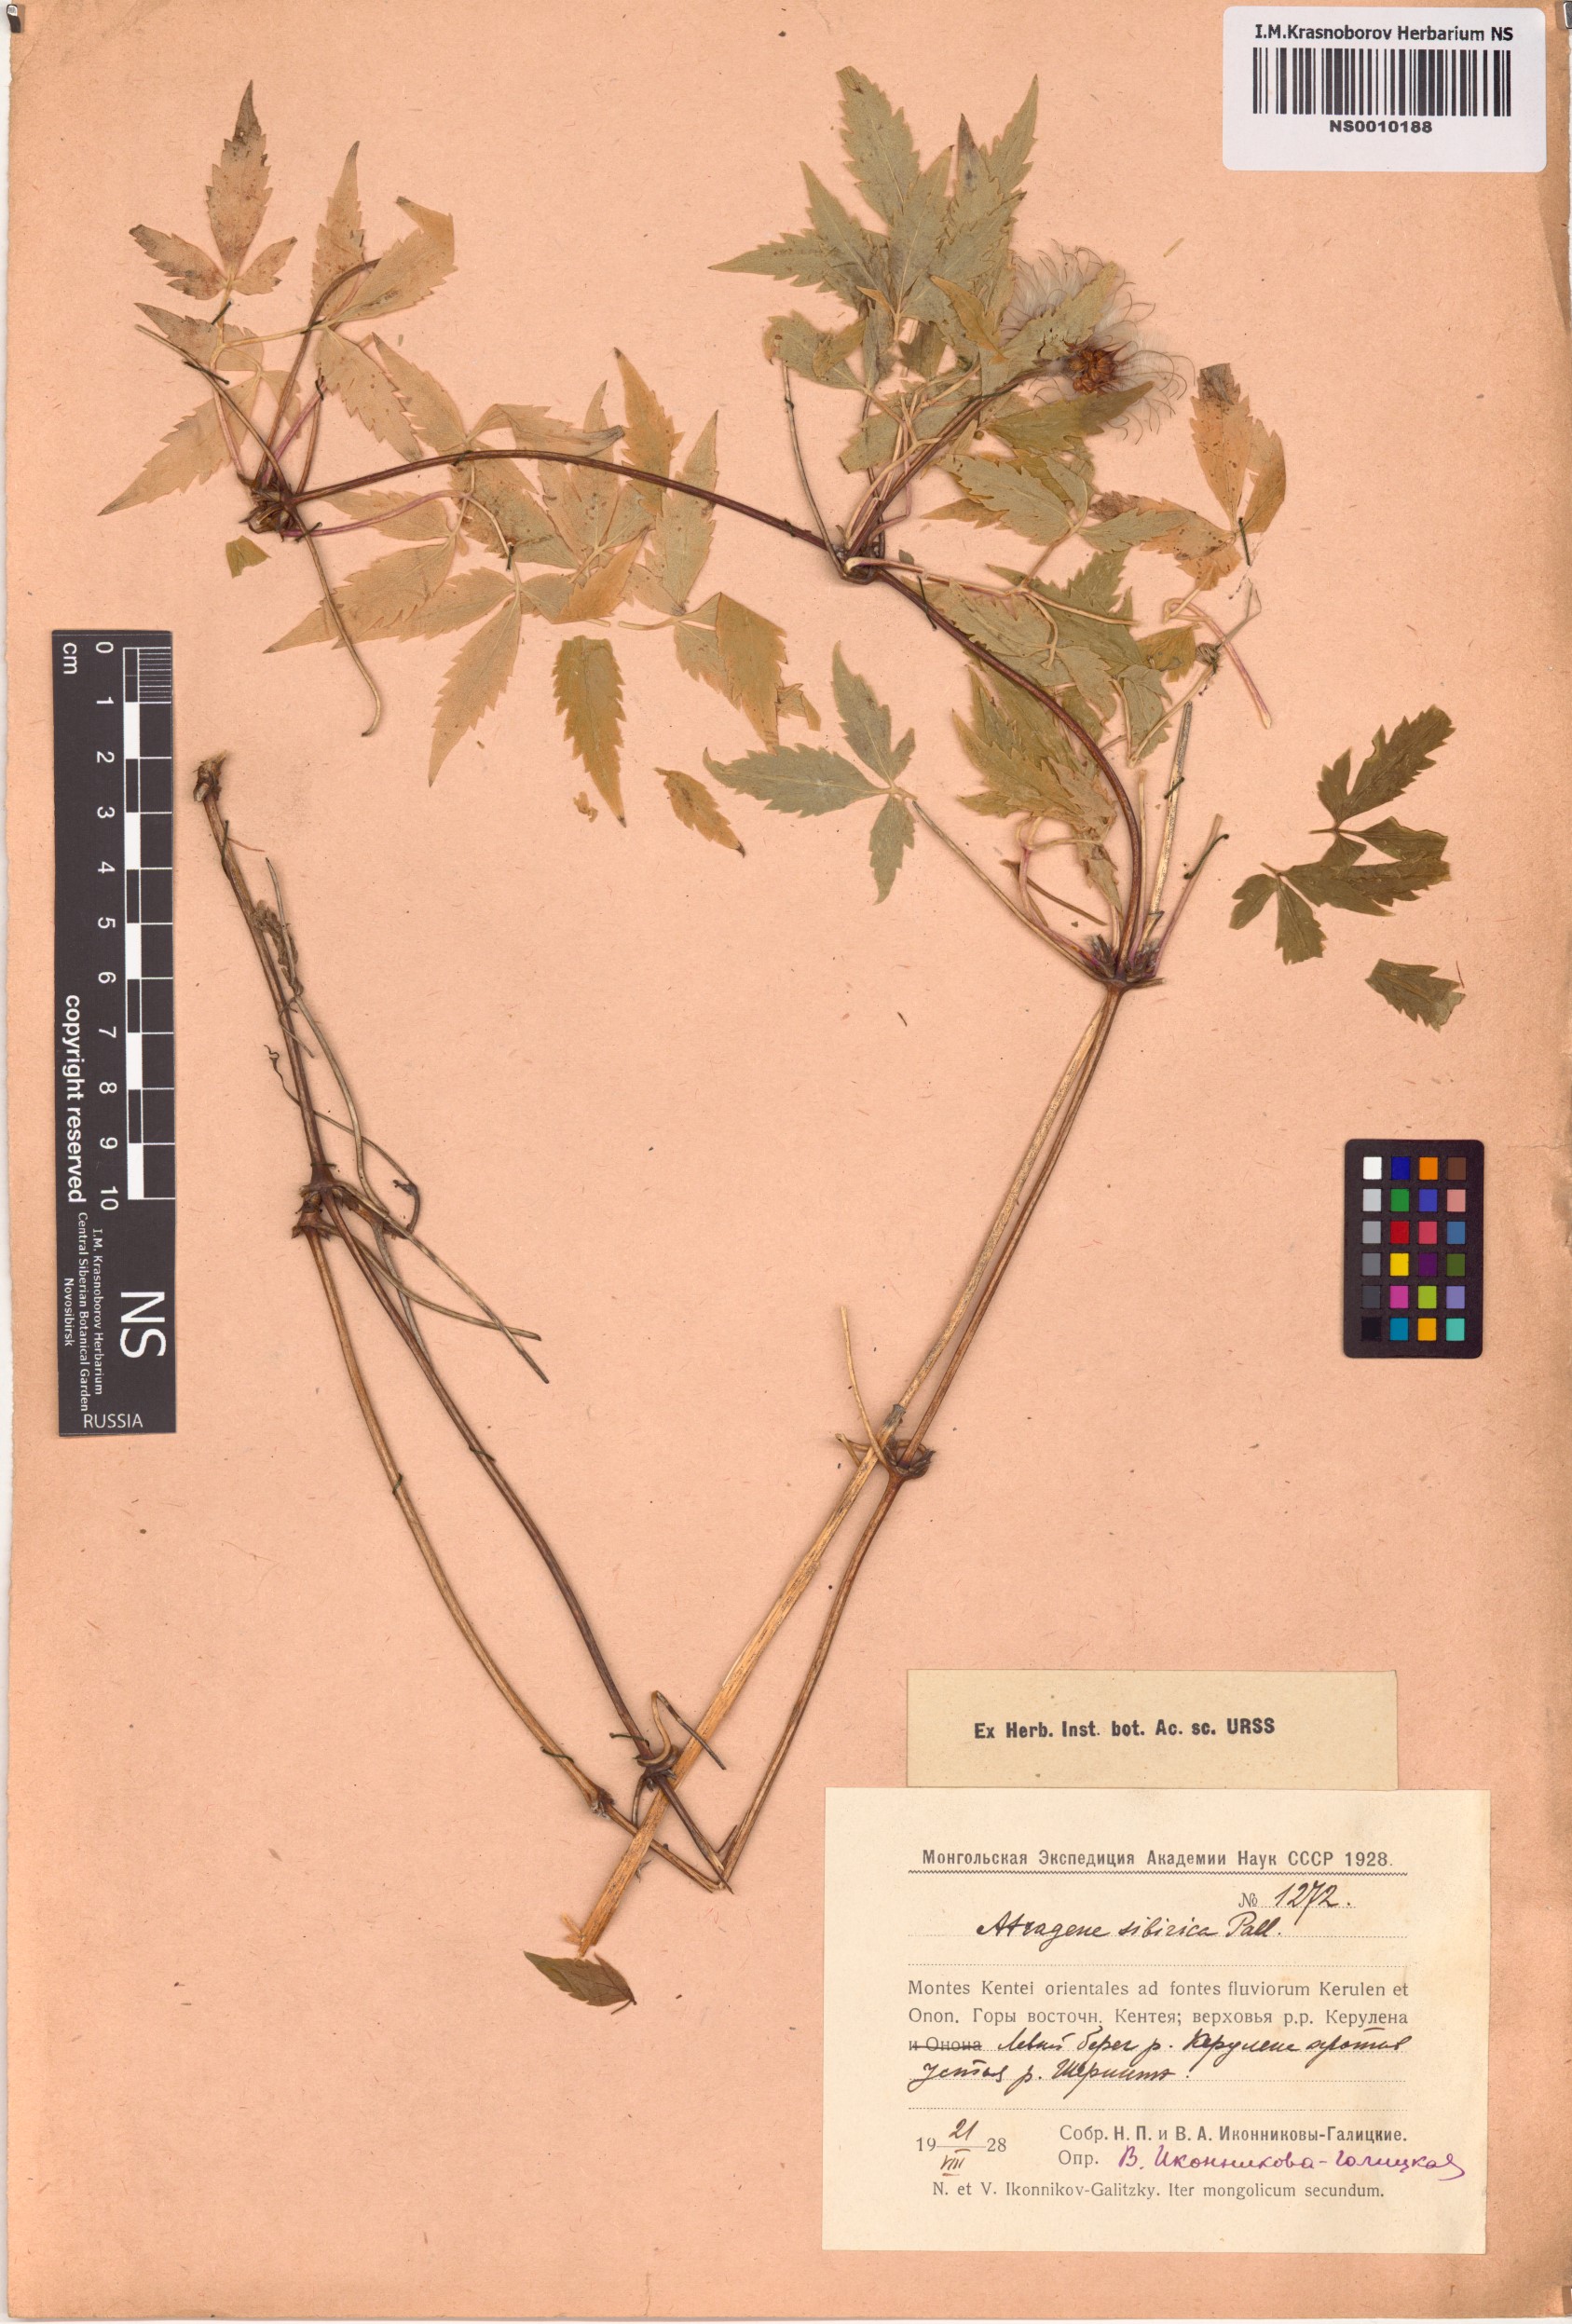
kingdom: Plantae
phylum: Tracheophyta
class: Magnoliopsida
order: Ranunculales
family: Ranunculaceae
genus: Clematis
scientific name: Clematis sibirica
